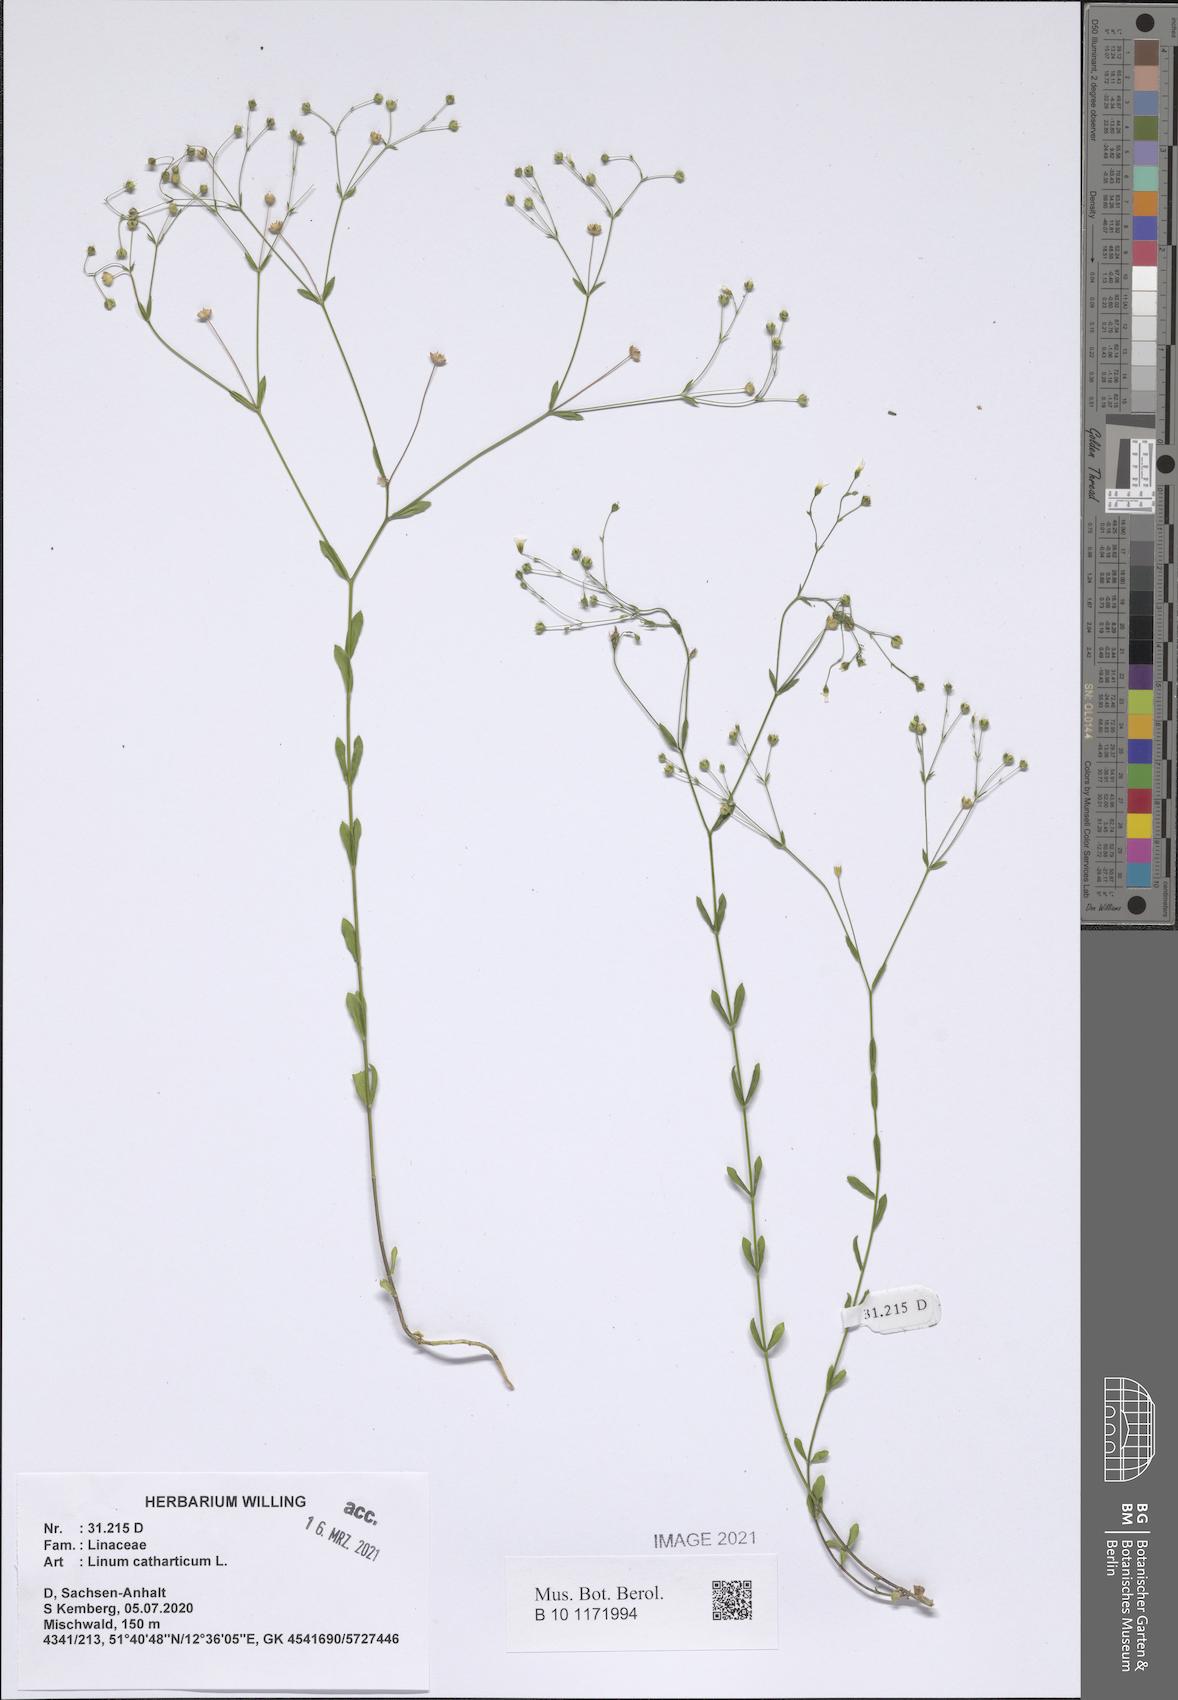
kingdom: Plantae
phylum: Tracheophyta
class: Magnoliopsida
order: Malpighiales
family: Linaceae
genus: Linum
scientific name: Linum catharticum
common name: Fairy flax
